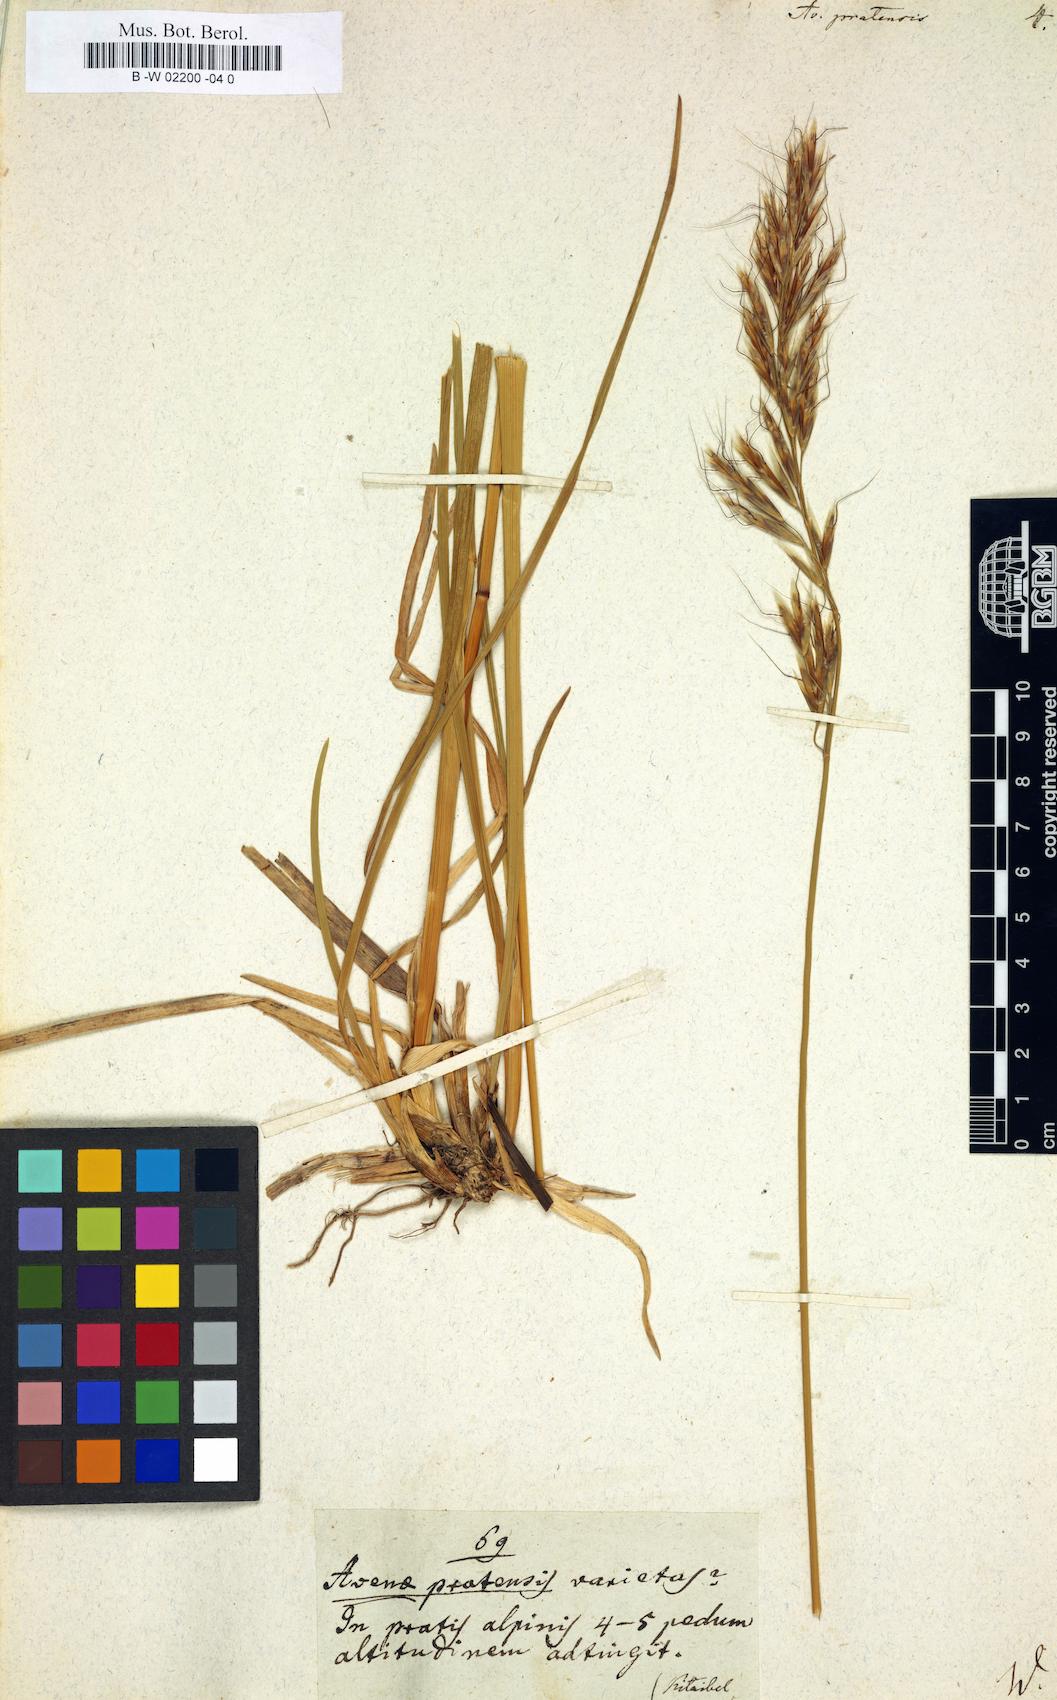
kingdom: Plantae
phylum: Tracheophyta
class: Liliopsida
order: Poales
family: Poaceae
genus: Helictochloa
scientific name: Helictochloa pratensis
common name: Meadow oat grass
